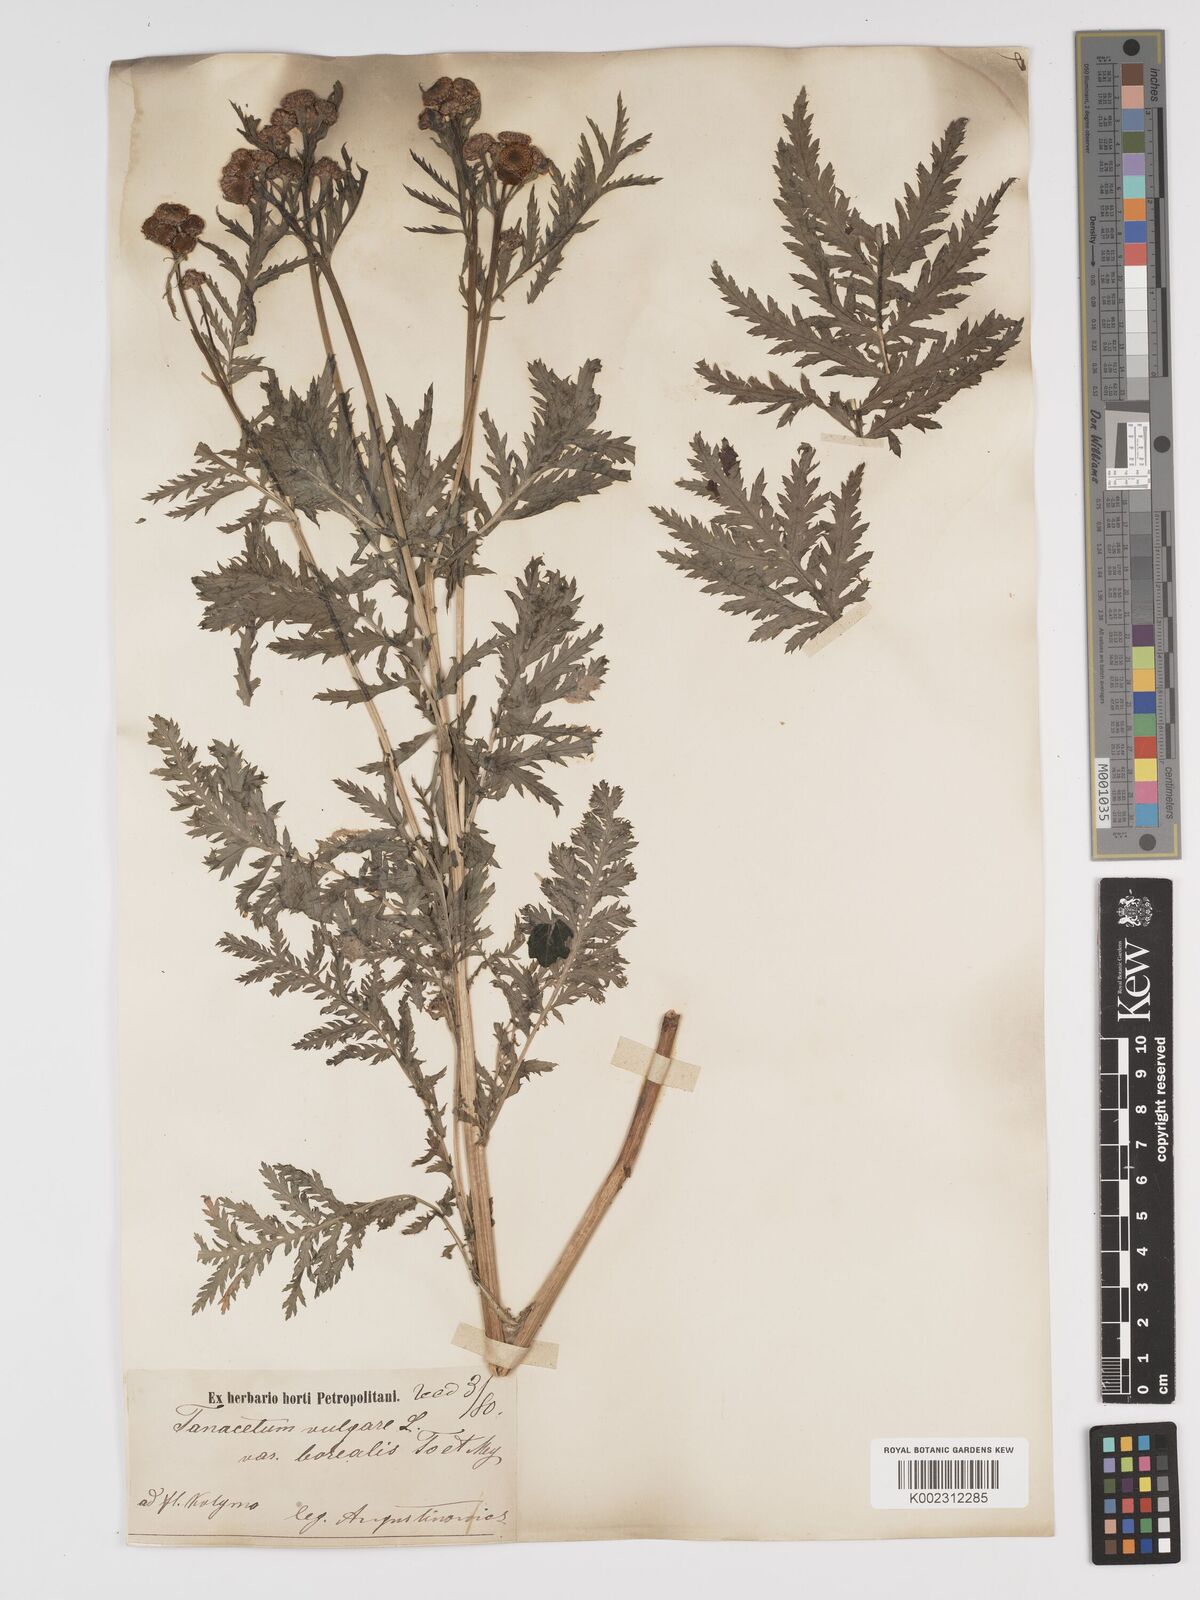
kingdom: Plantae
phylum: Tracheophyta
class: Magnoliopsida
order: Asterales
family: Asteraceae
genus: Tanacetum
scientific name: Tanacetum vulgare
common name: Common tansy
